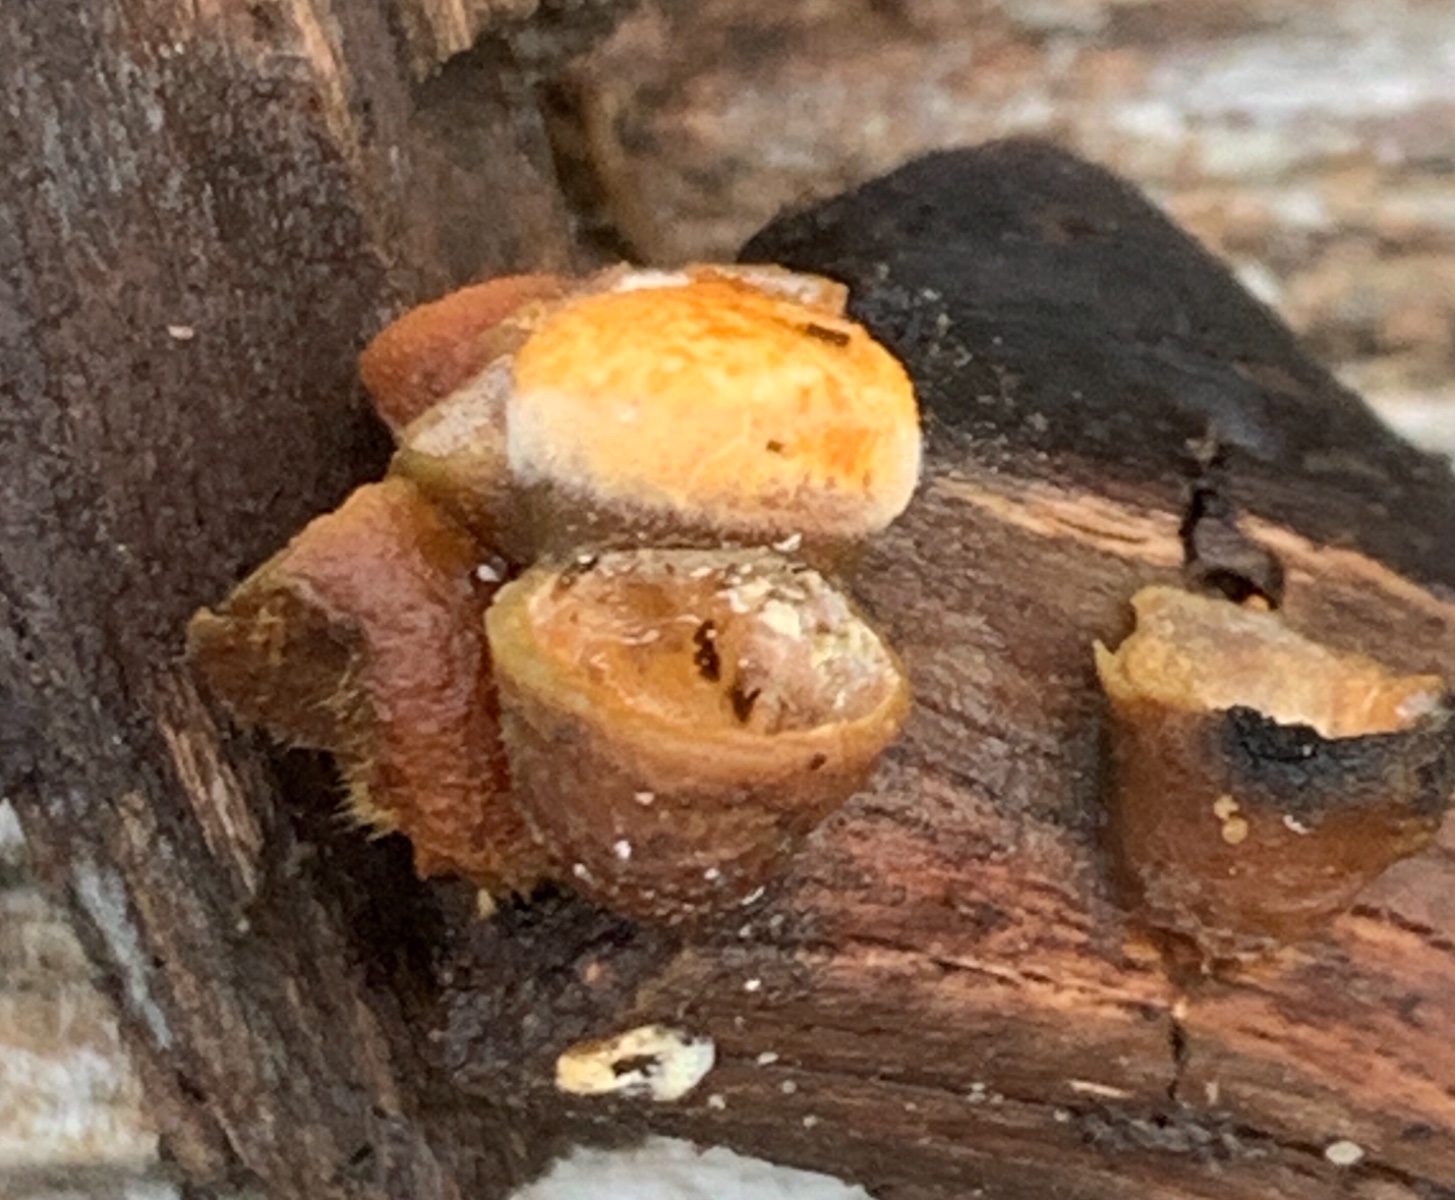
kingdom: Fungi
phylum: Basidiomycota
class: Agaricomycetes
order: Agaricales
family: Nidulariaceae
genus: Crucibulum
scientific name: Crucibulum crucibuliforme
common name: krukkesvamp
